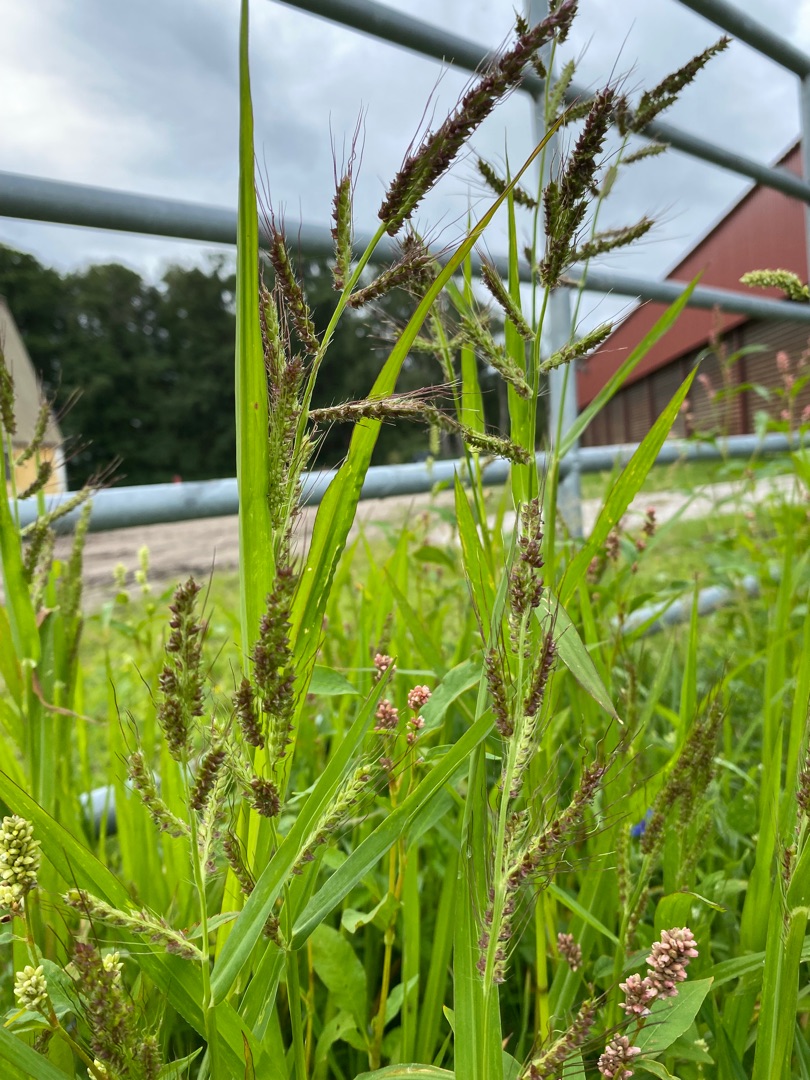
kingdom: Plantae
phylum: Tracheophyta
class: Liliopsida
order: Poales
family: Poaceae
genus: Echinochloa
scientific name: Echinochloa crus-galli
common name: Almindelig hanespore
